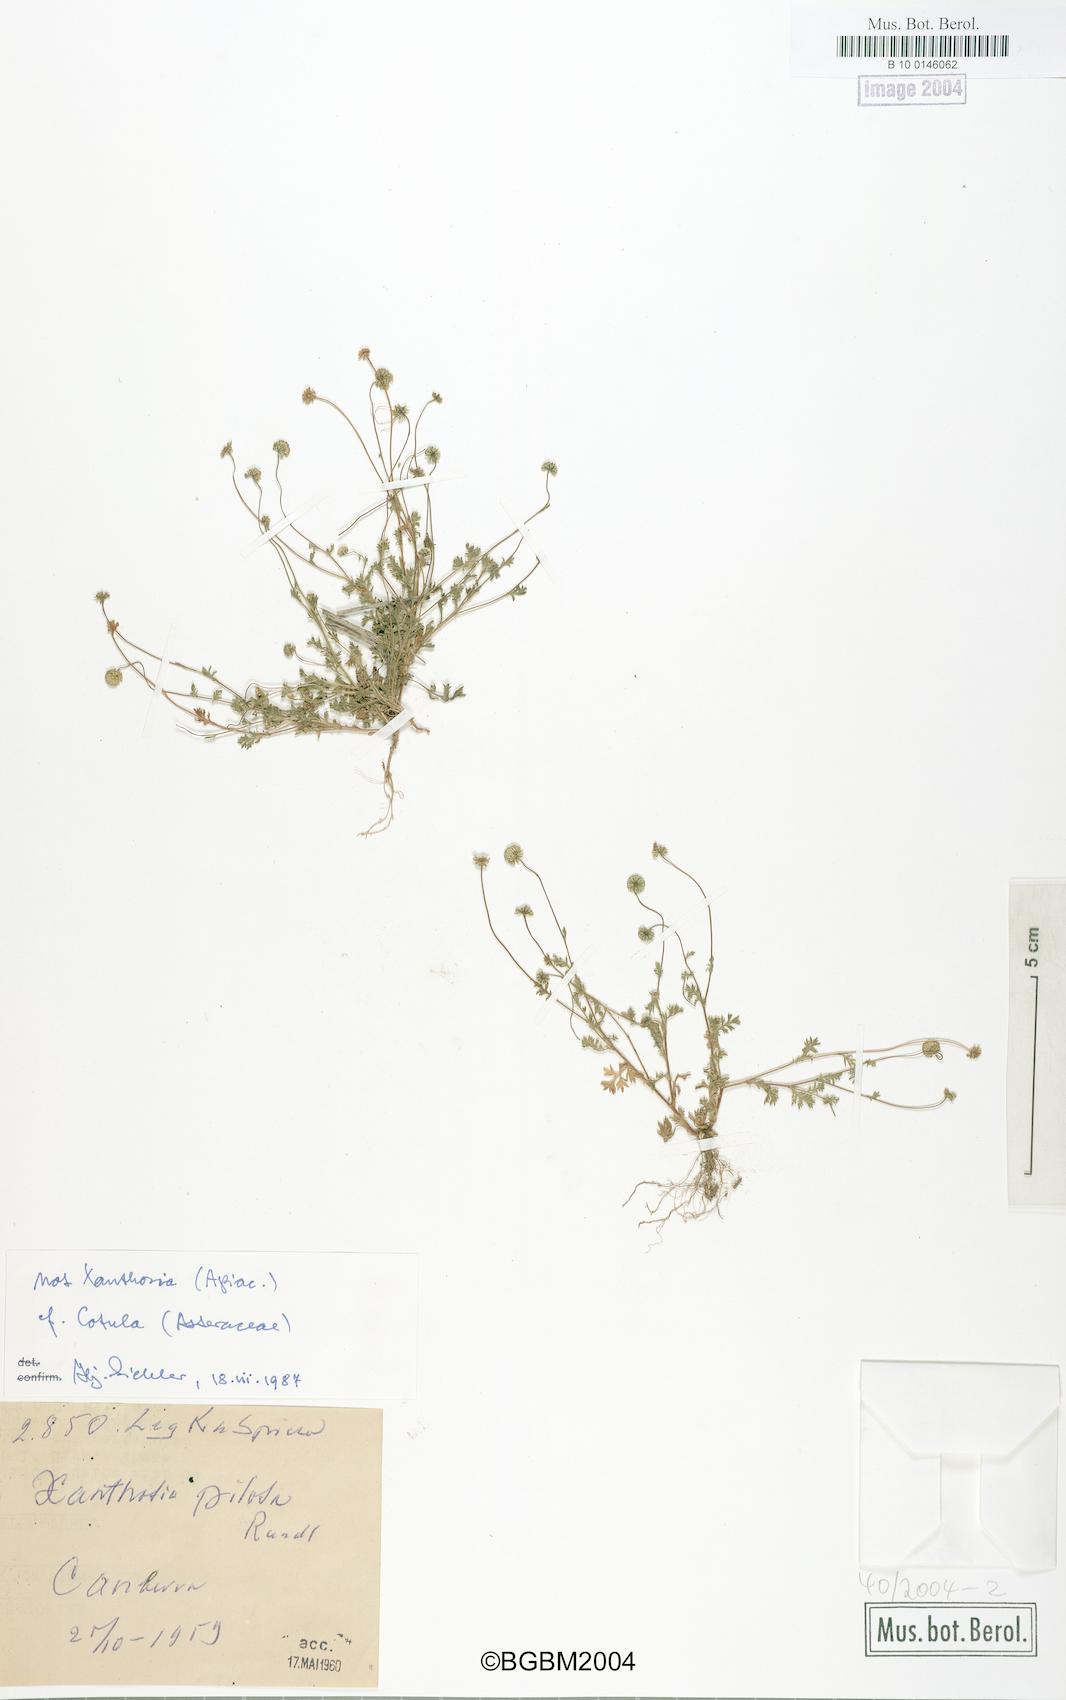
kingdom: Plantae
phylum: Tracheophyta
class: Magnoliopsida
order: Asterales
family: Asteraceae
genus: Cotula
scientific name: Cotula
